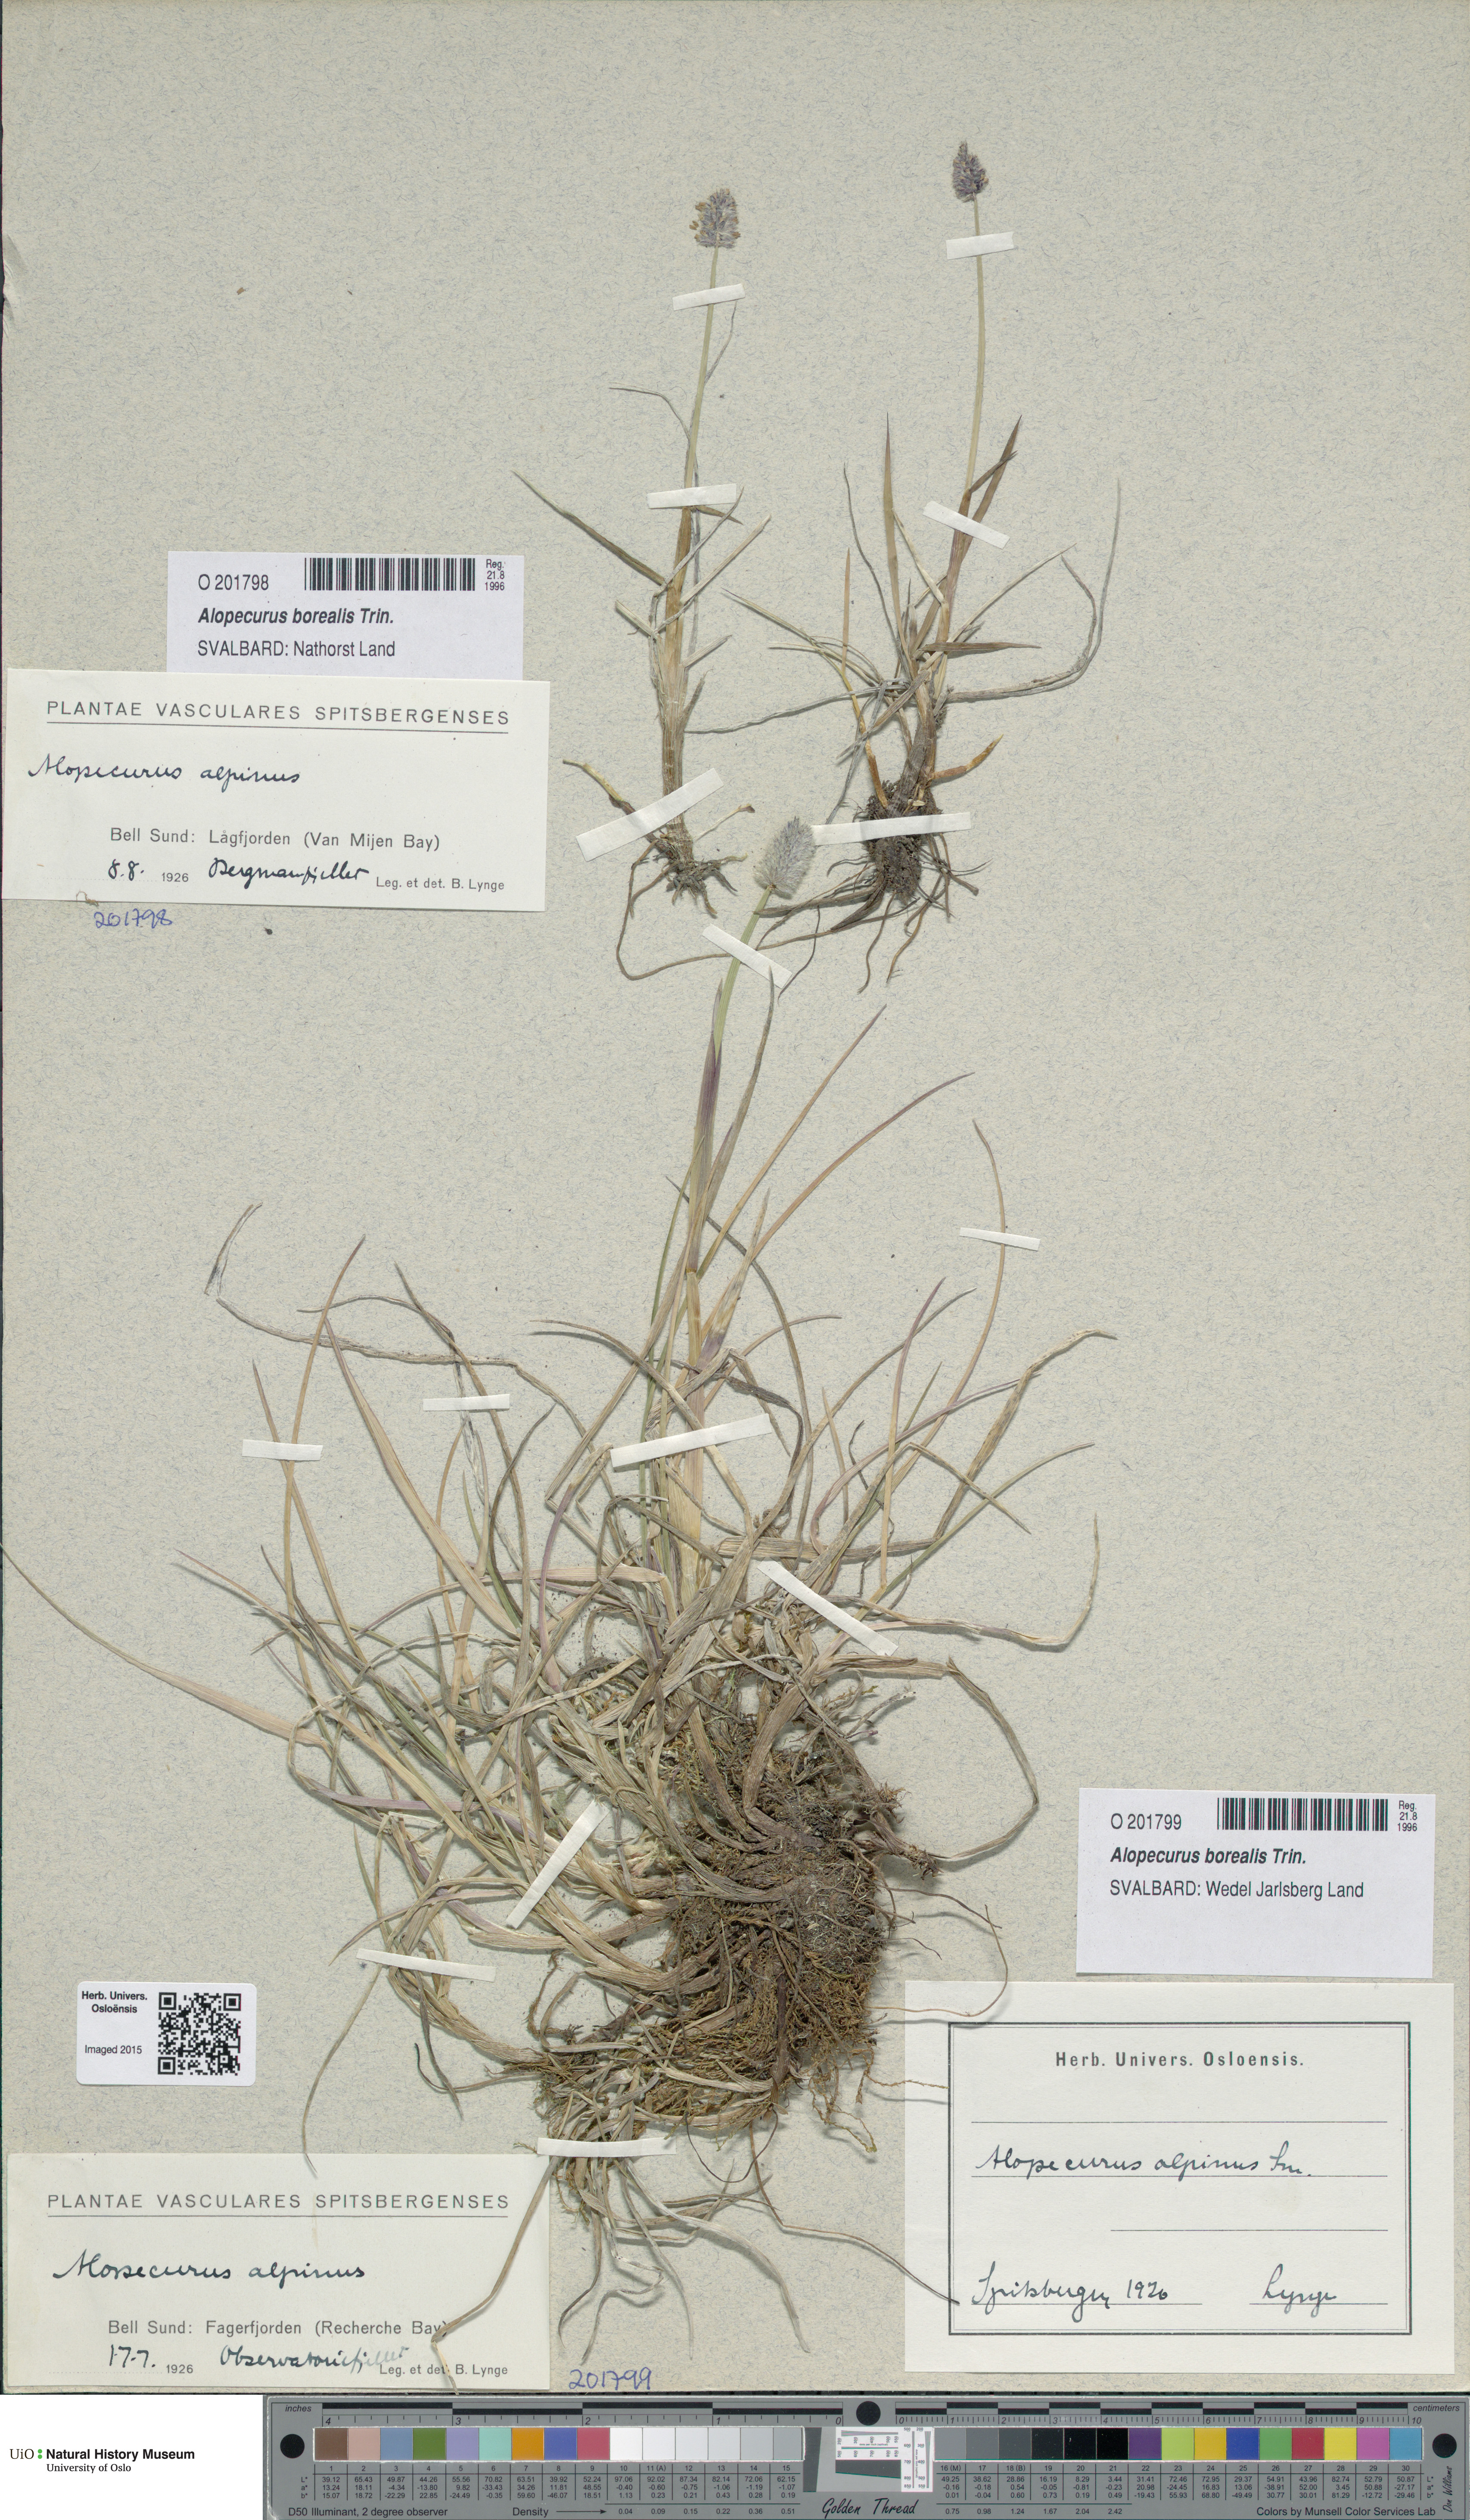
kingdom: Plantae
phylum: Tracheophyta
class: Liliopsida
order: Poales
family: Poaceae
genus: Alopecurus
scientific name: Alopecurus magellanicus
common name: Alpine foxtail
